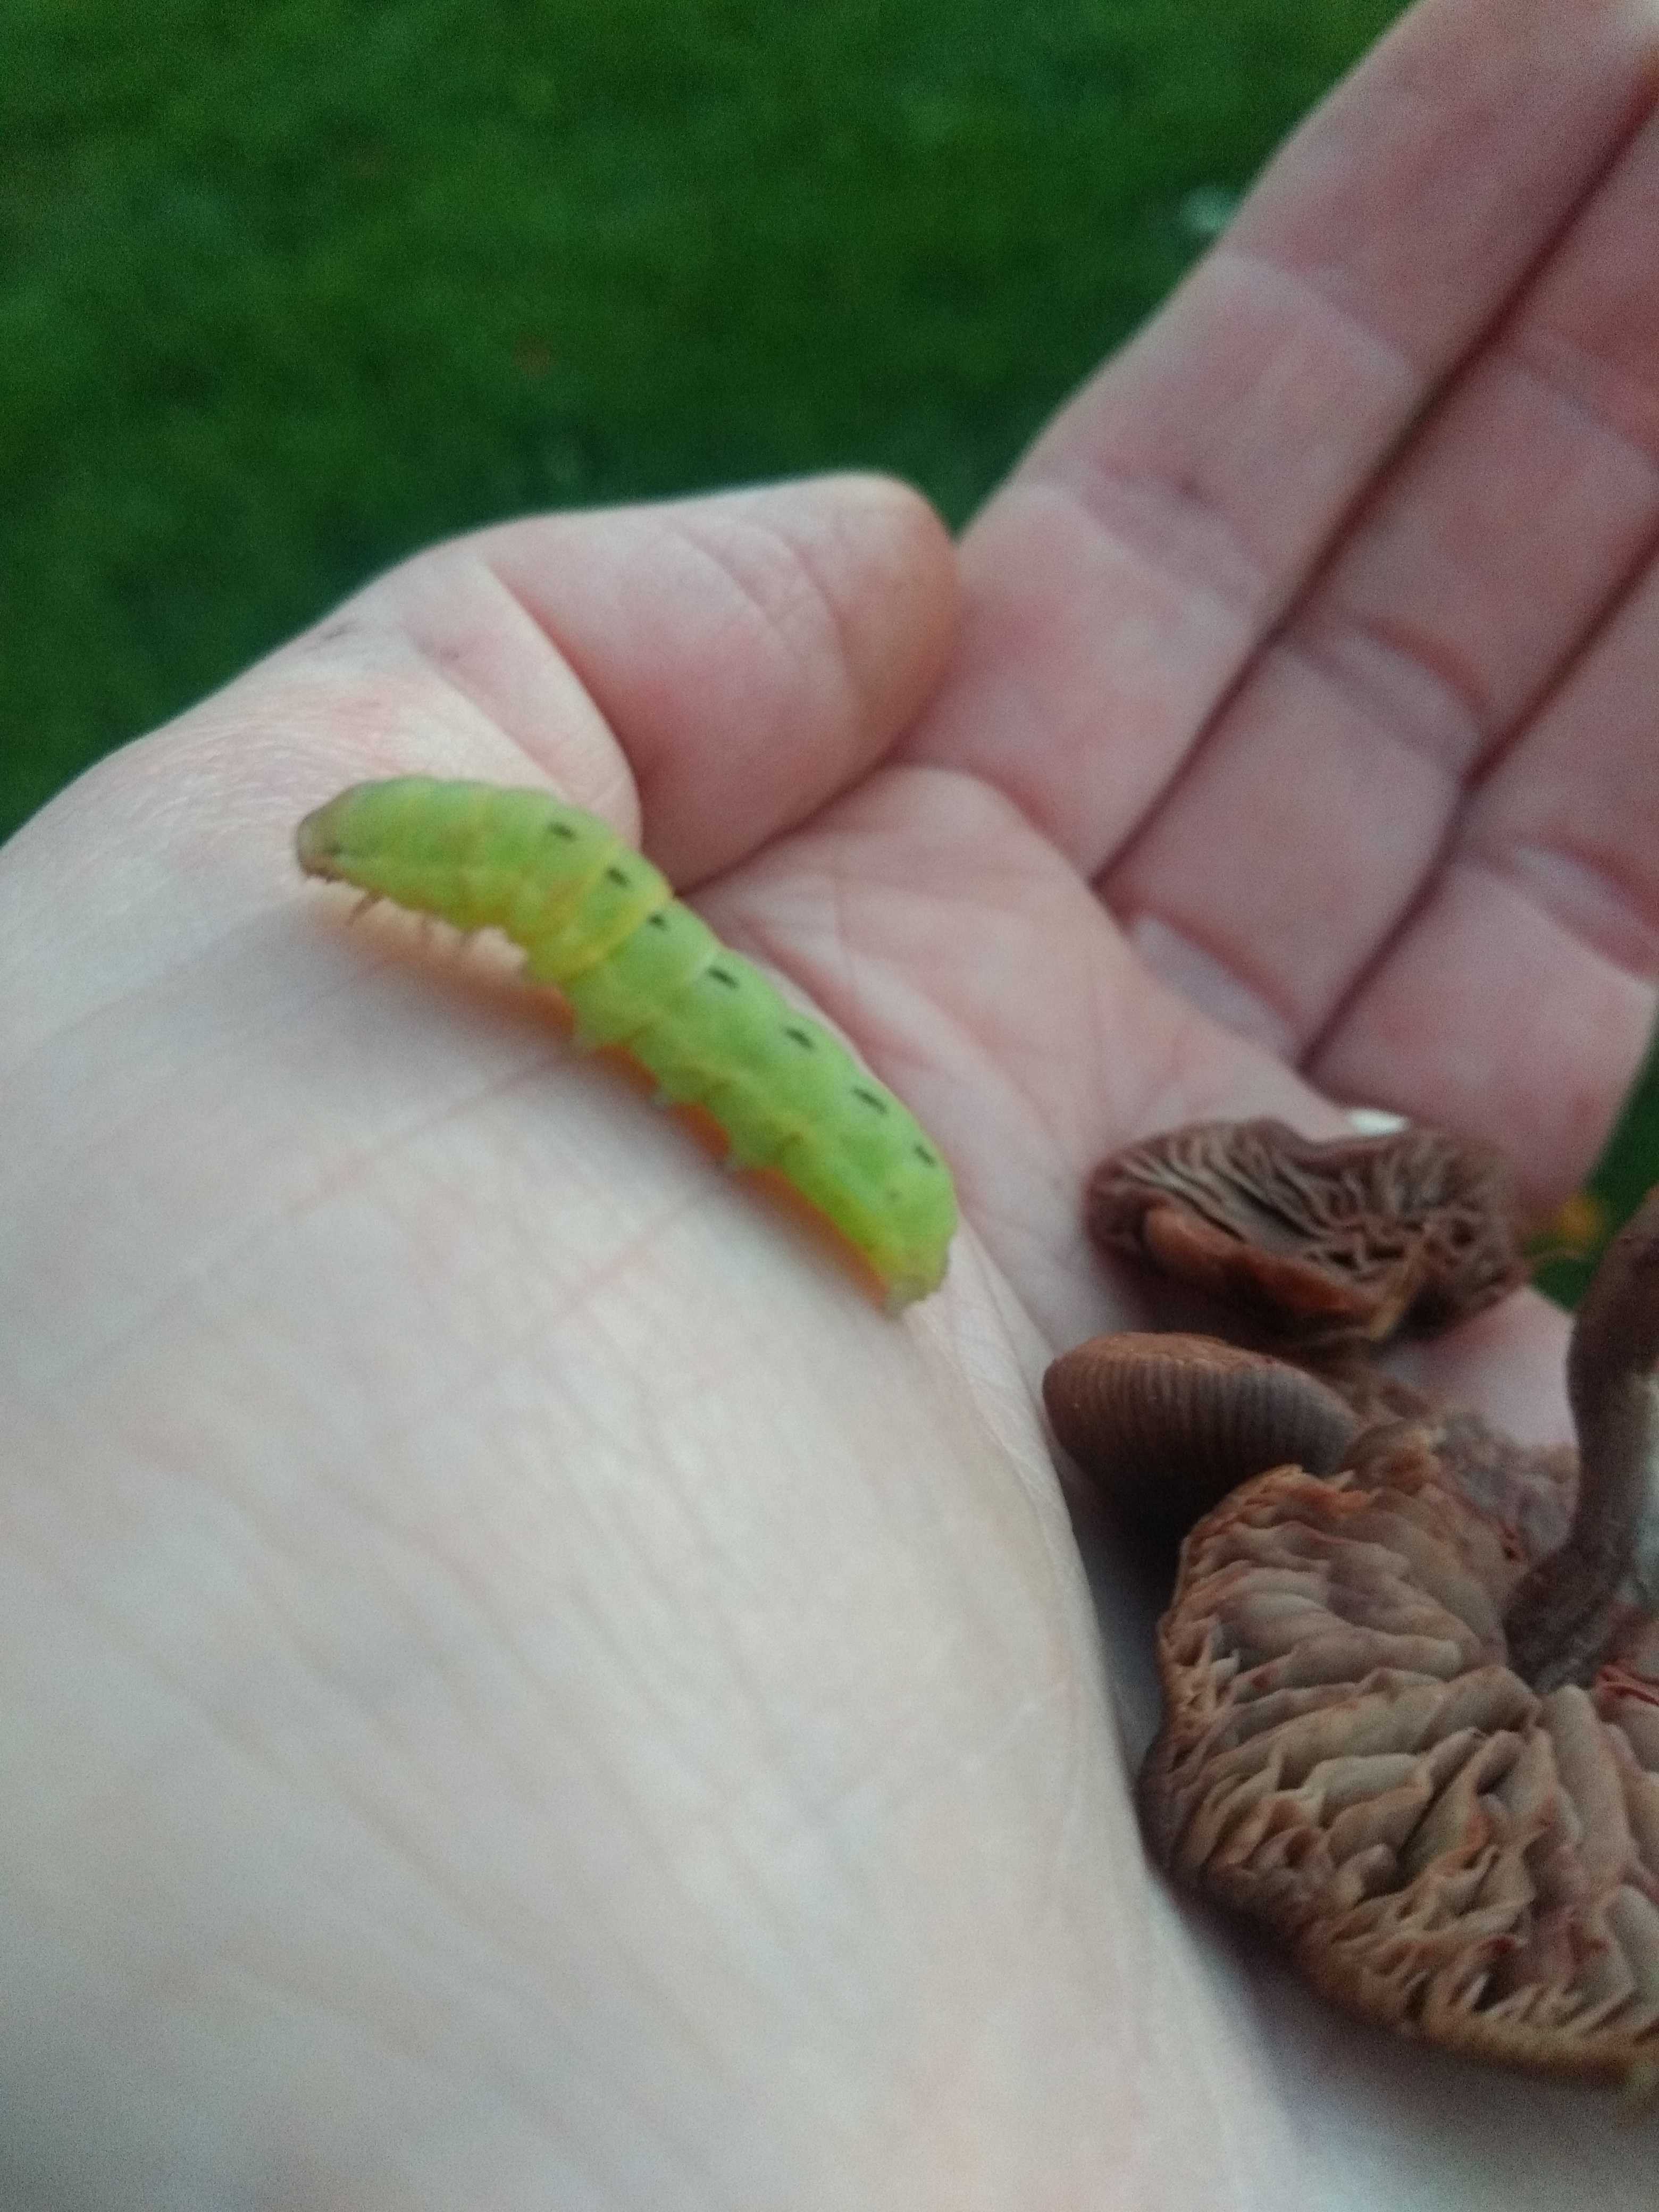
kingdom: Fungi
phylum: Basidiomycota
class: Agaricomycetes
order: Agaricales
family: Entolomataceae
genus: Entoloma
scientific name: Entoloma
